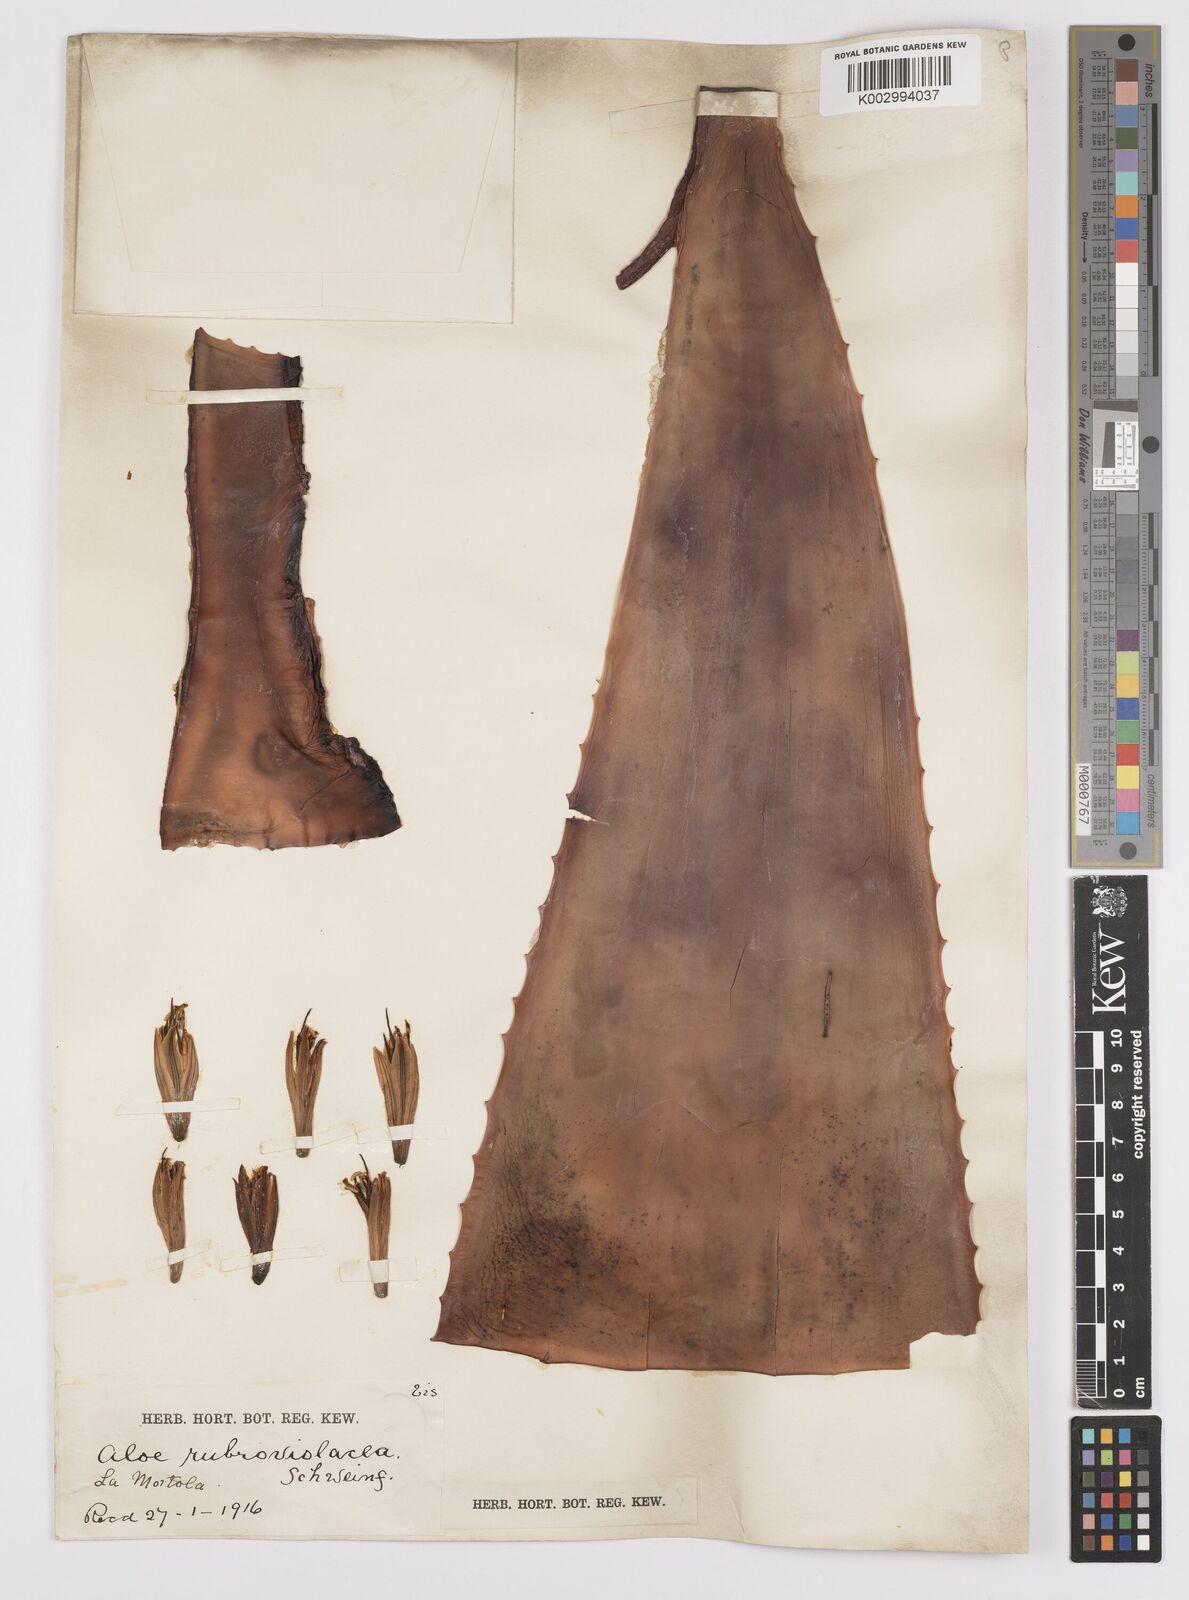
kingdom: Plantae
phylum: Tracheophyta
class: Liliopsida
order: Asparagales
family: Asphodelaceae
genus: Aloe
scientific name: Aloe rubroviolacea
